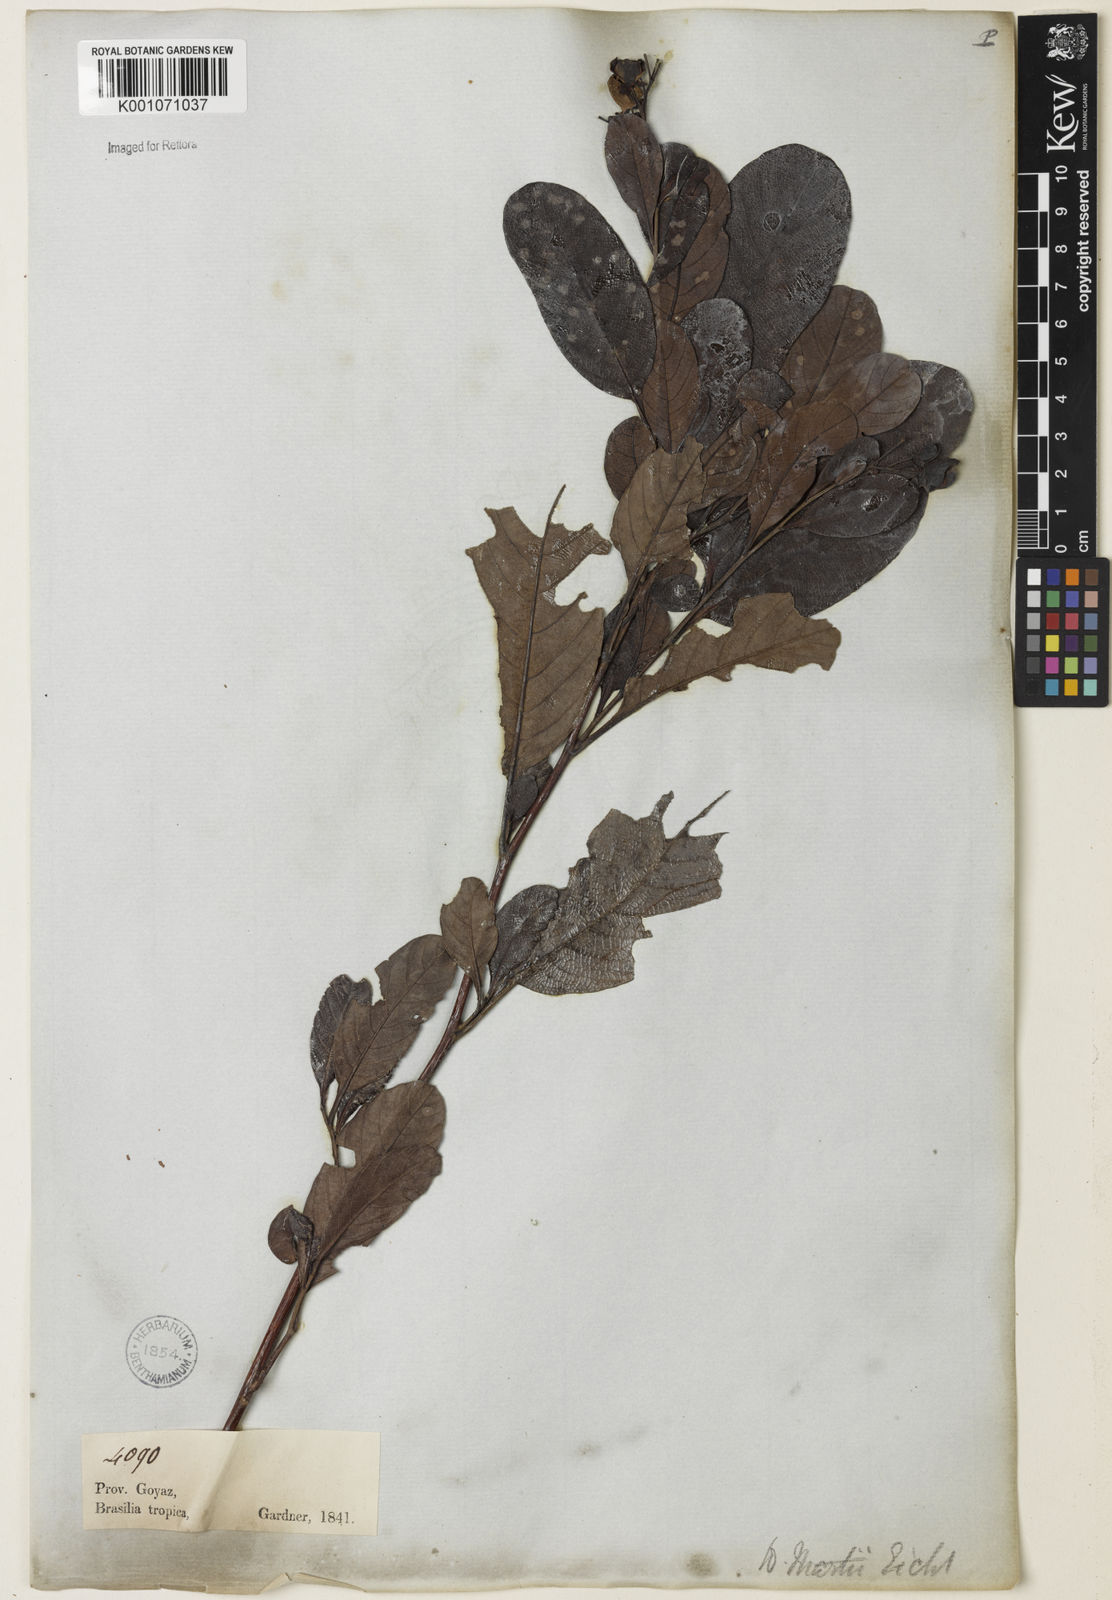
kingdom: Plantae
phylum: Tracheophyta
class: Magnoliopsida
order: Dilleniales
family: Dilleniaceae
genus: Davilla
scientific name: Davilla grandiflora
